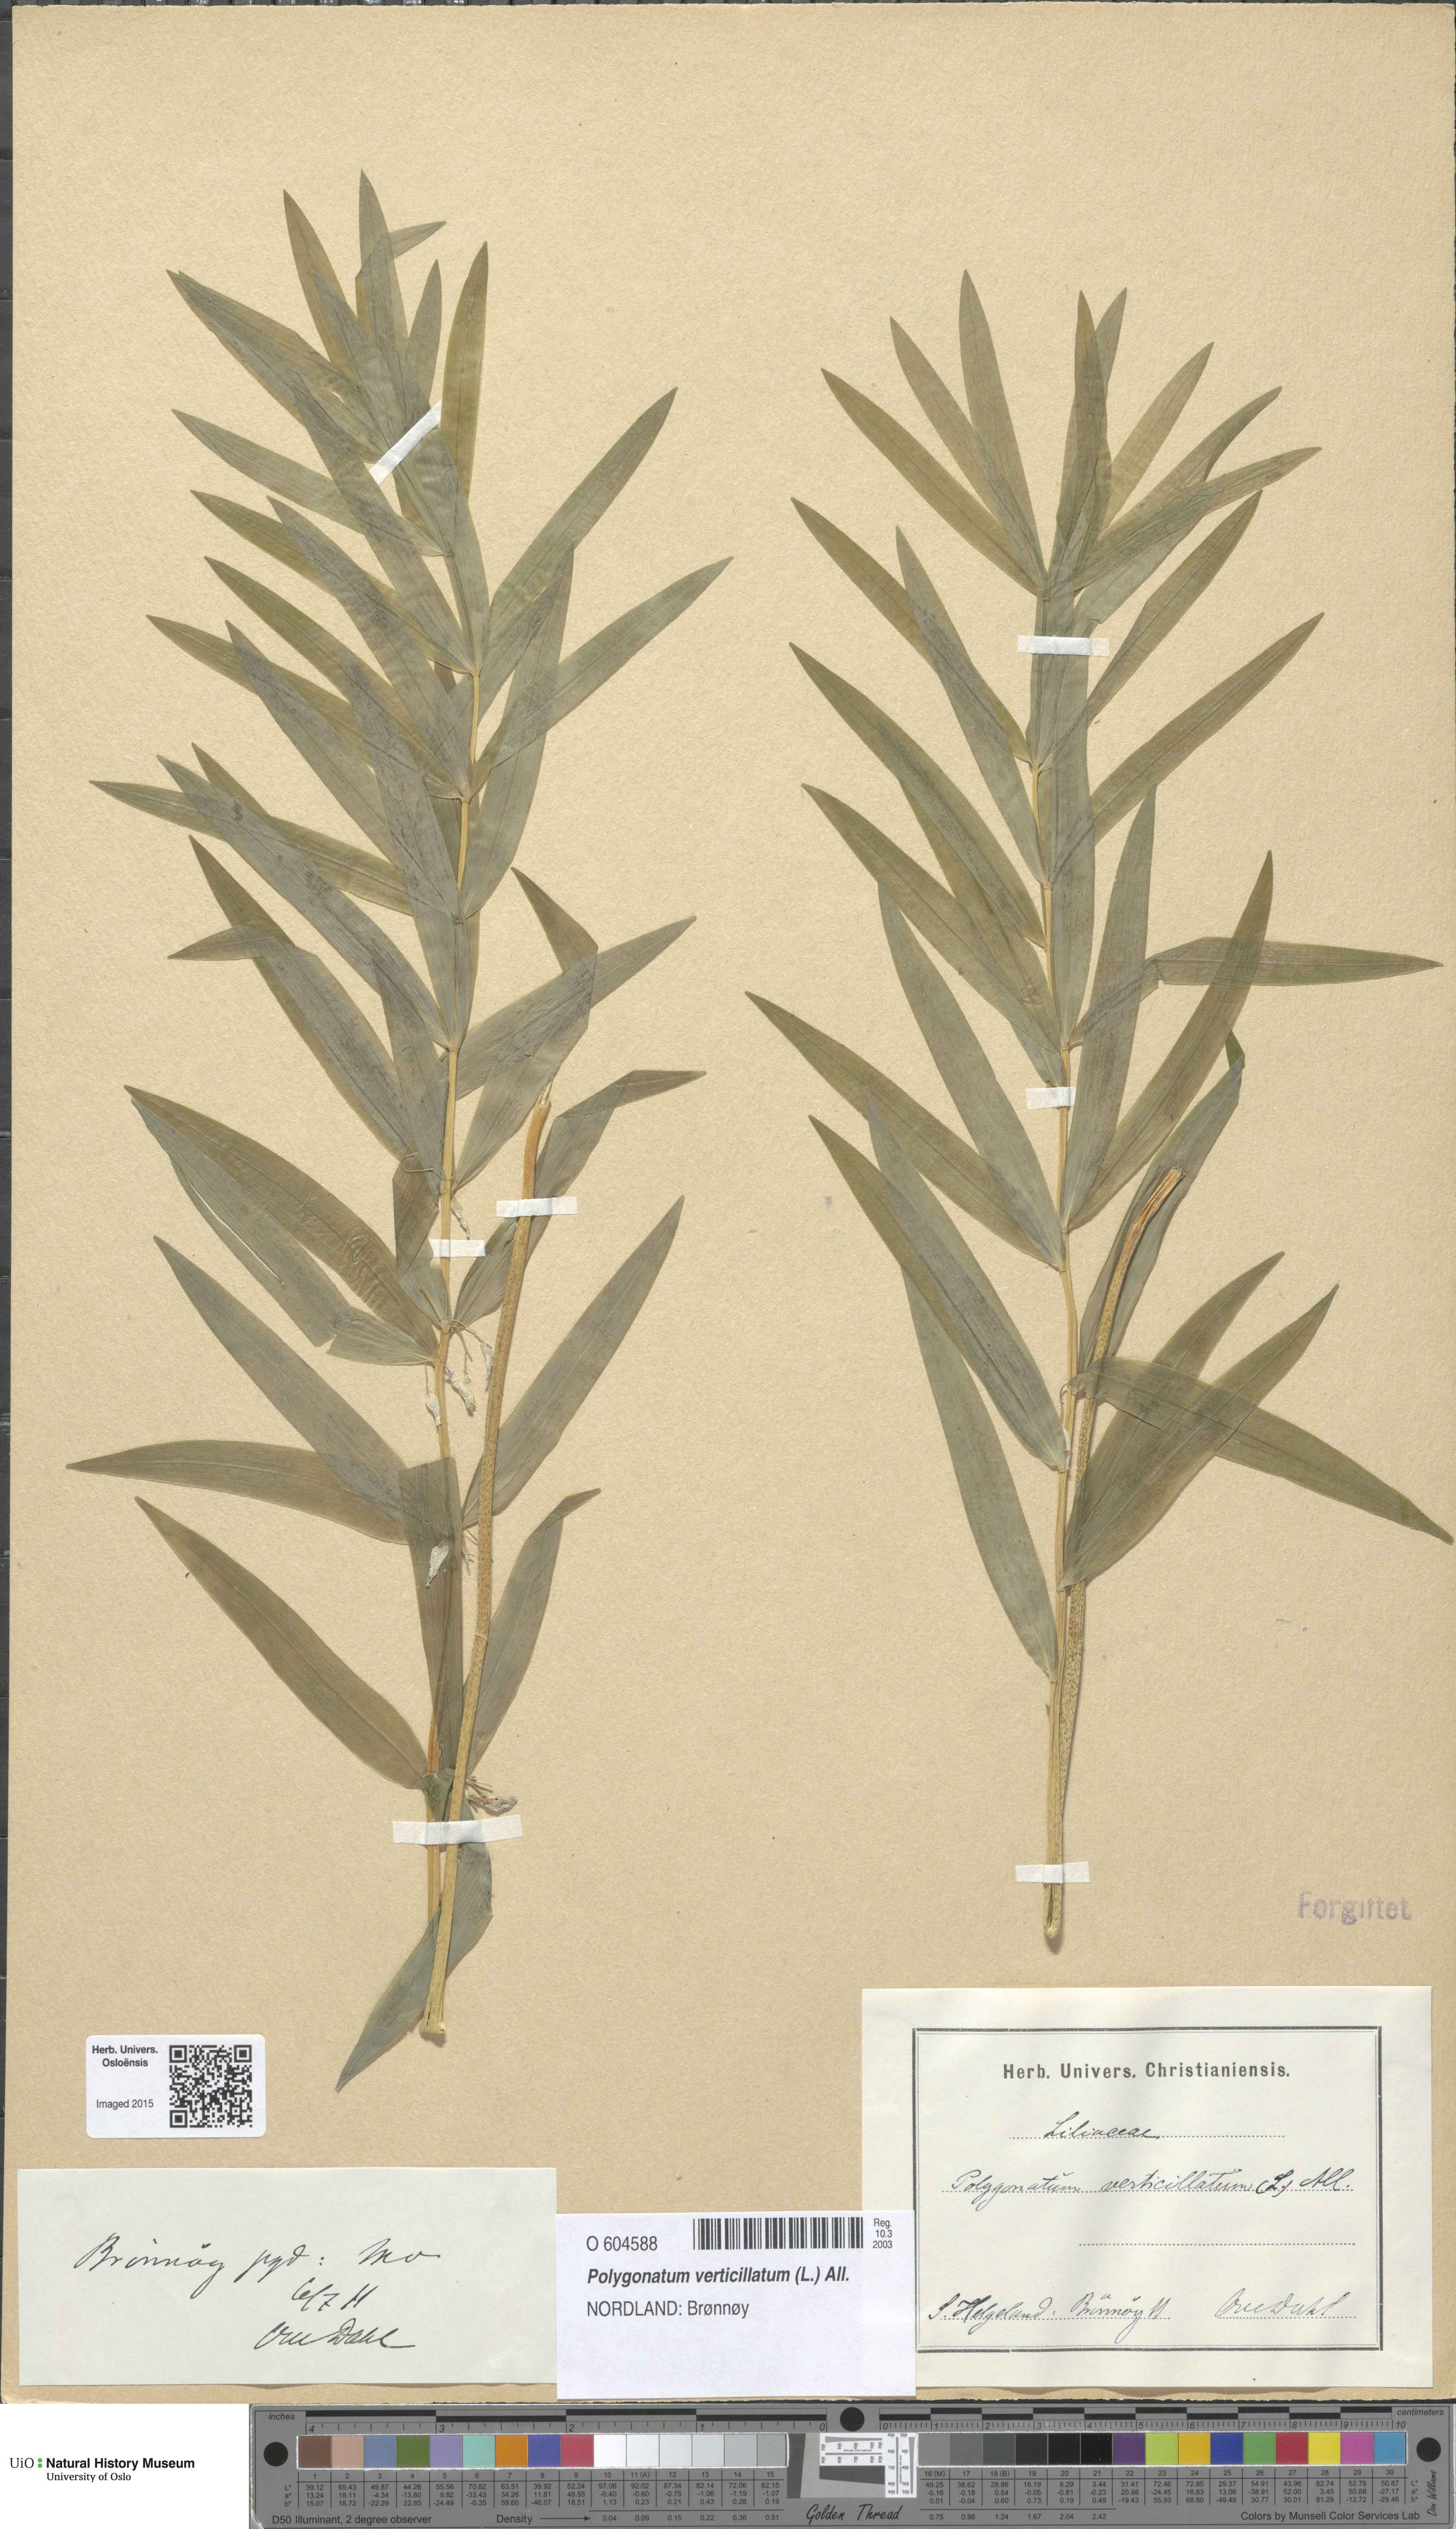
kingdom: Plantae
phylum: Tracheophyta
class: Liliopsida
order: Asparagales
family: Asparagaceae
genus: Polygonatum
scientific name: Polygonatum verticillatum
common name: Whorled solomon's-seal
